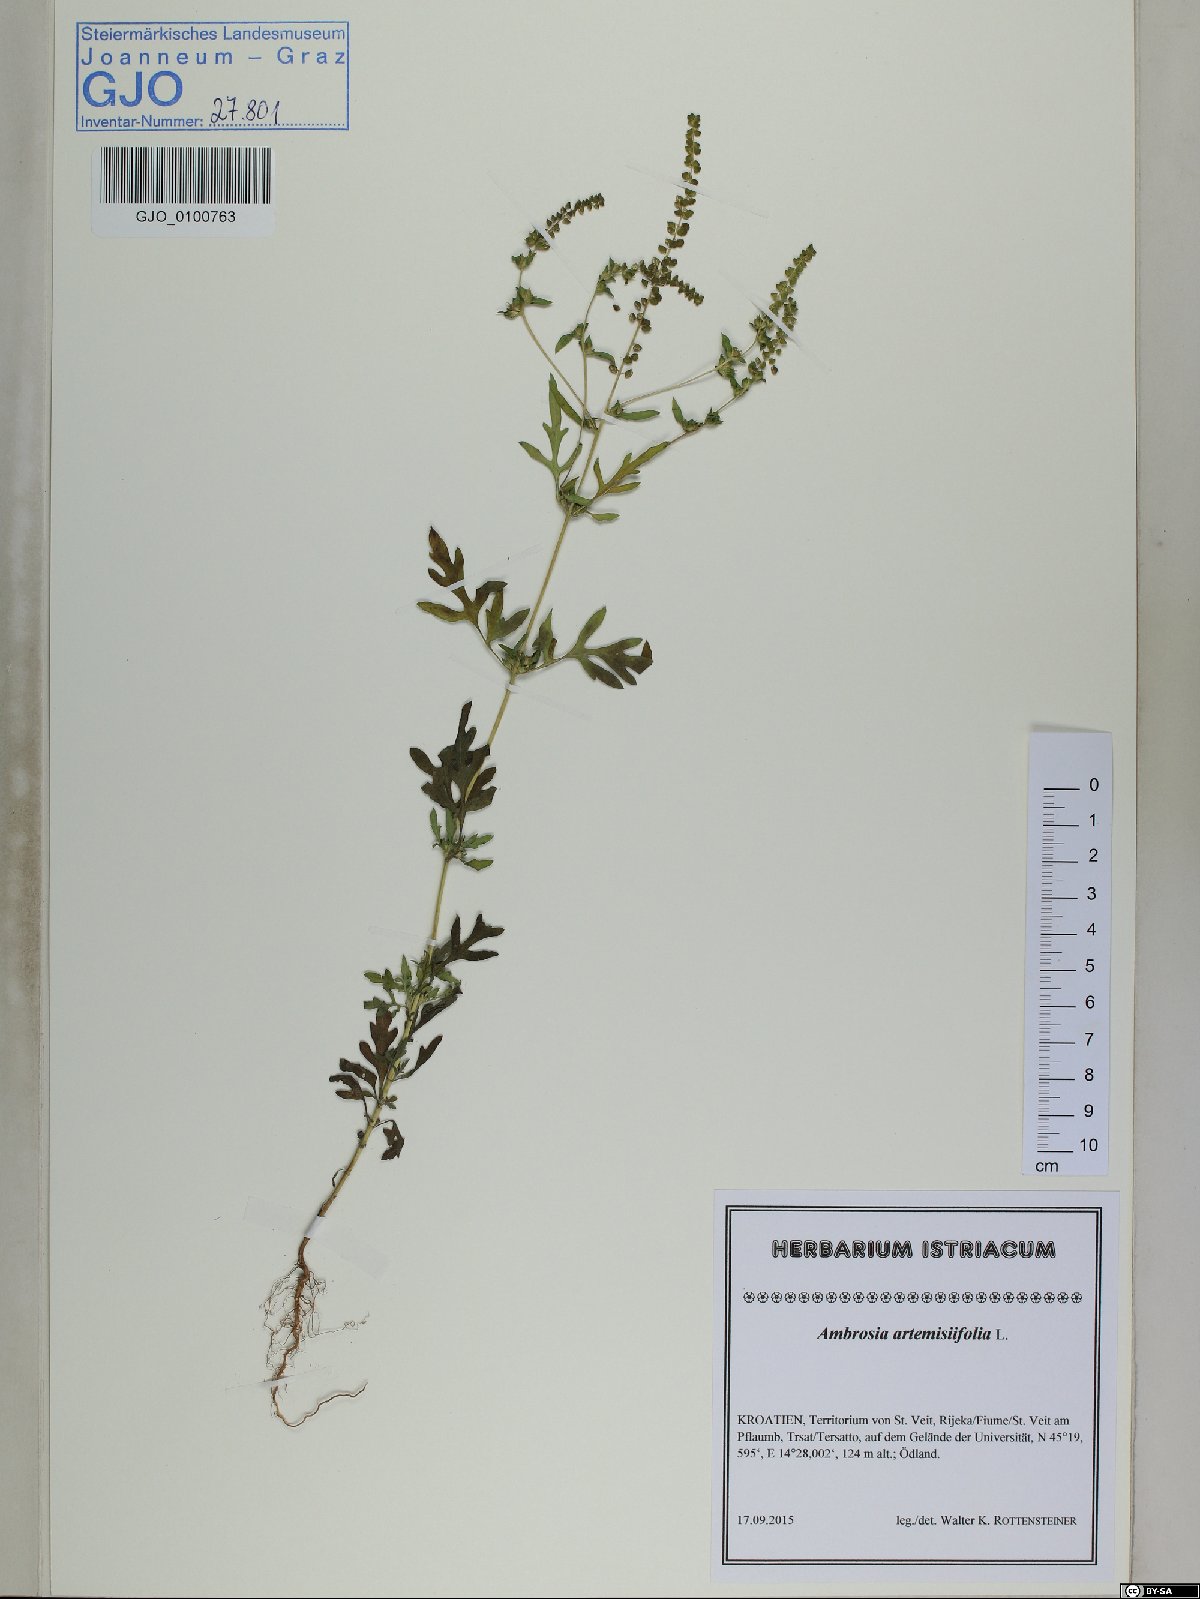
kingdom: Plantae
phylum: Tracheophyta
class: Magnoliopsida
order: Asterales
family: Asteraceae
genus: Ambrosia
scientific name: Ambrosia artemisiifolia
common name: Annual ragweed
